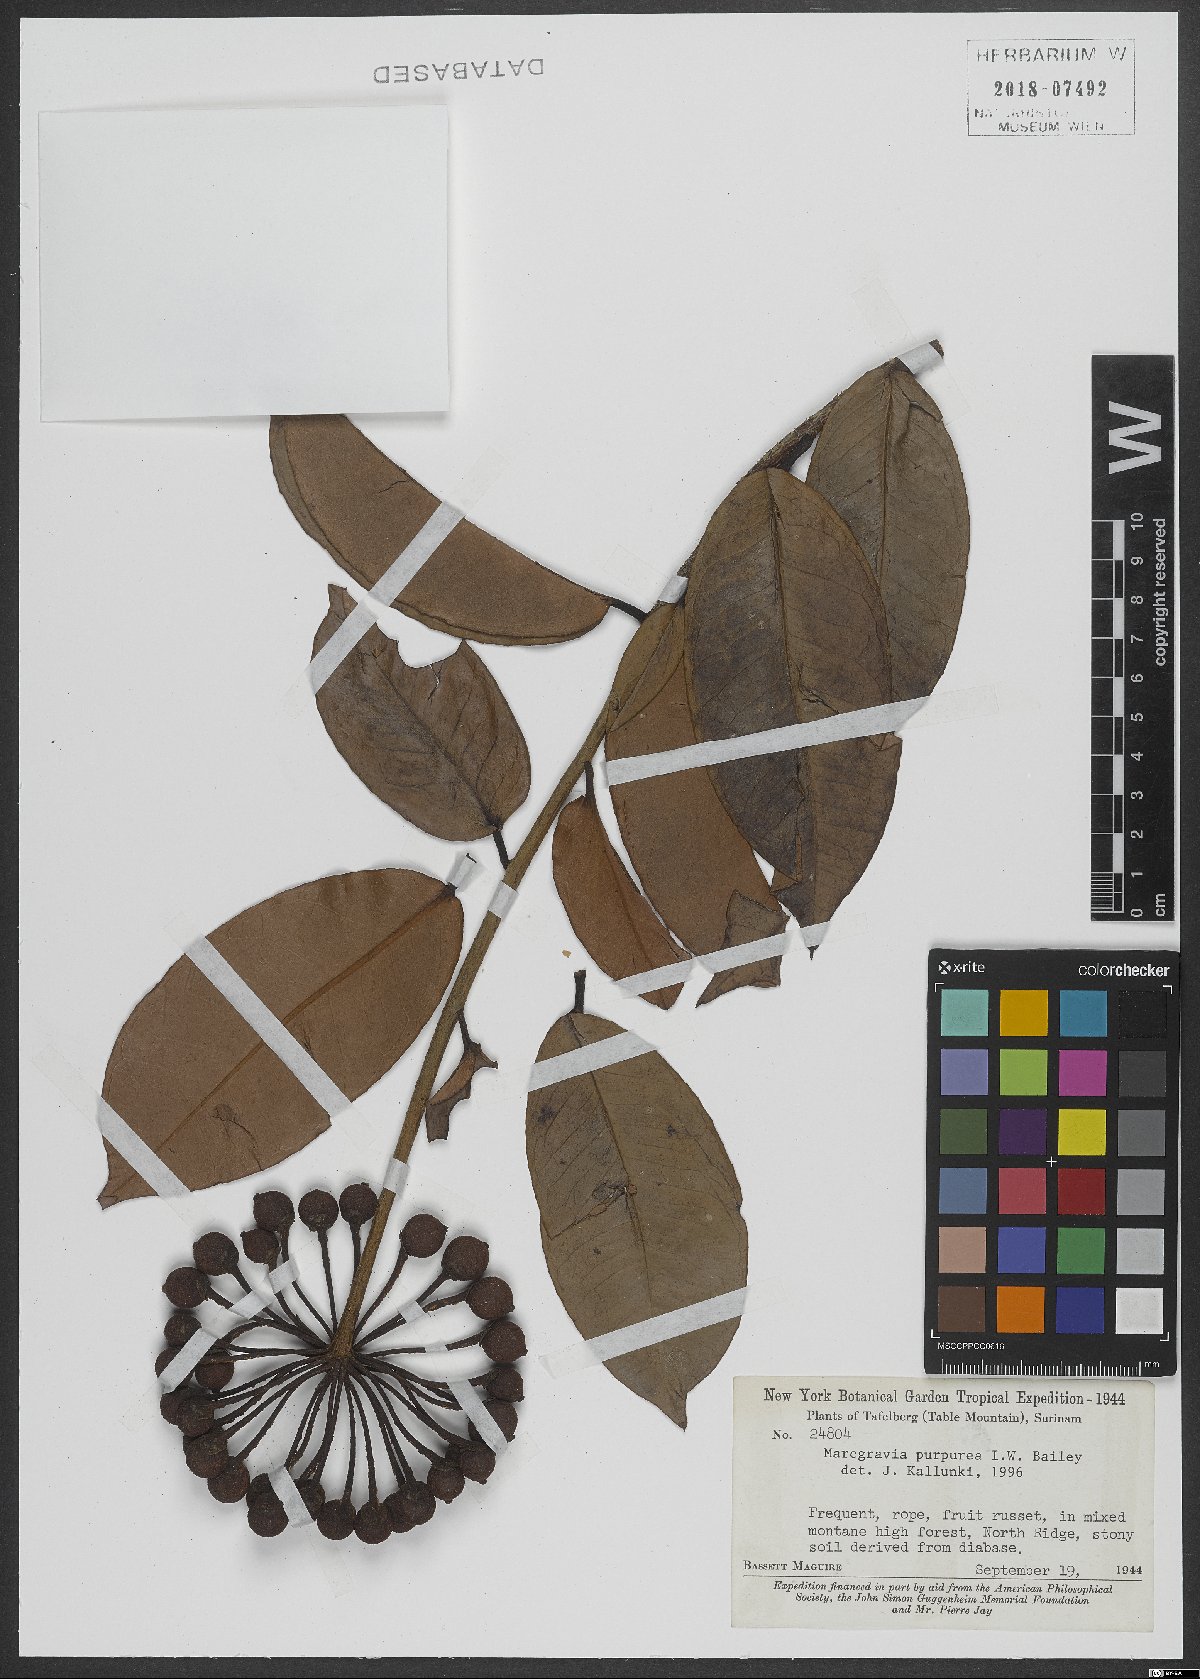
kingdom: Plantae
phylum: Tracheophyta
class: Magnoliopsida
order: Ericales
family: Marcgraviaceae
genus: Marcgravia
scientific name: Marcgravia purpurea
